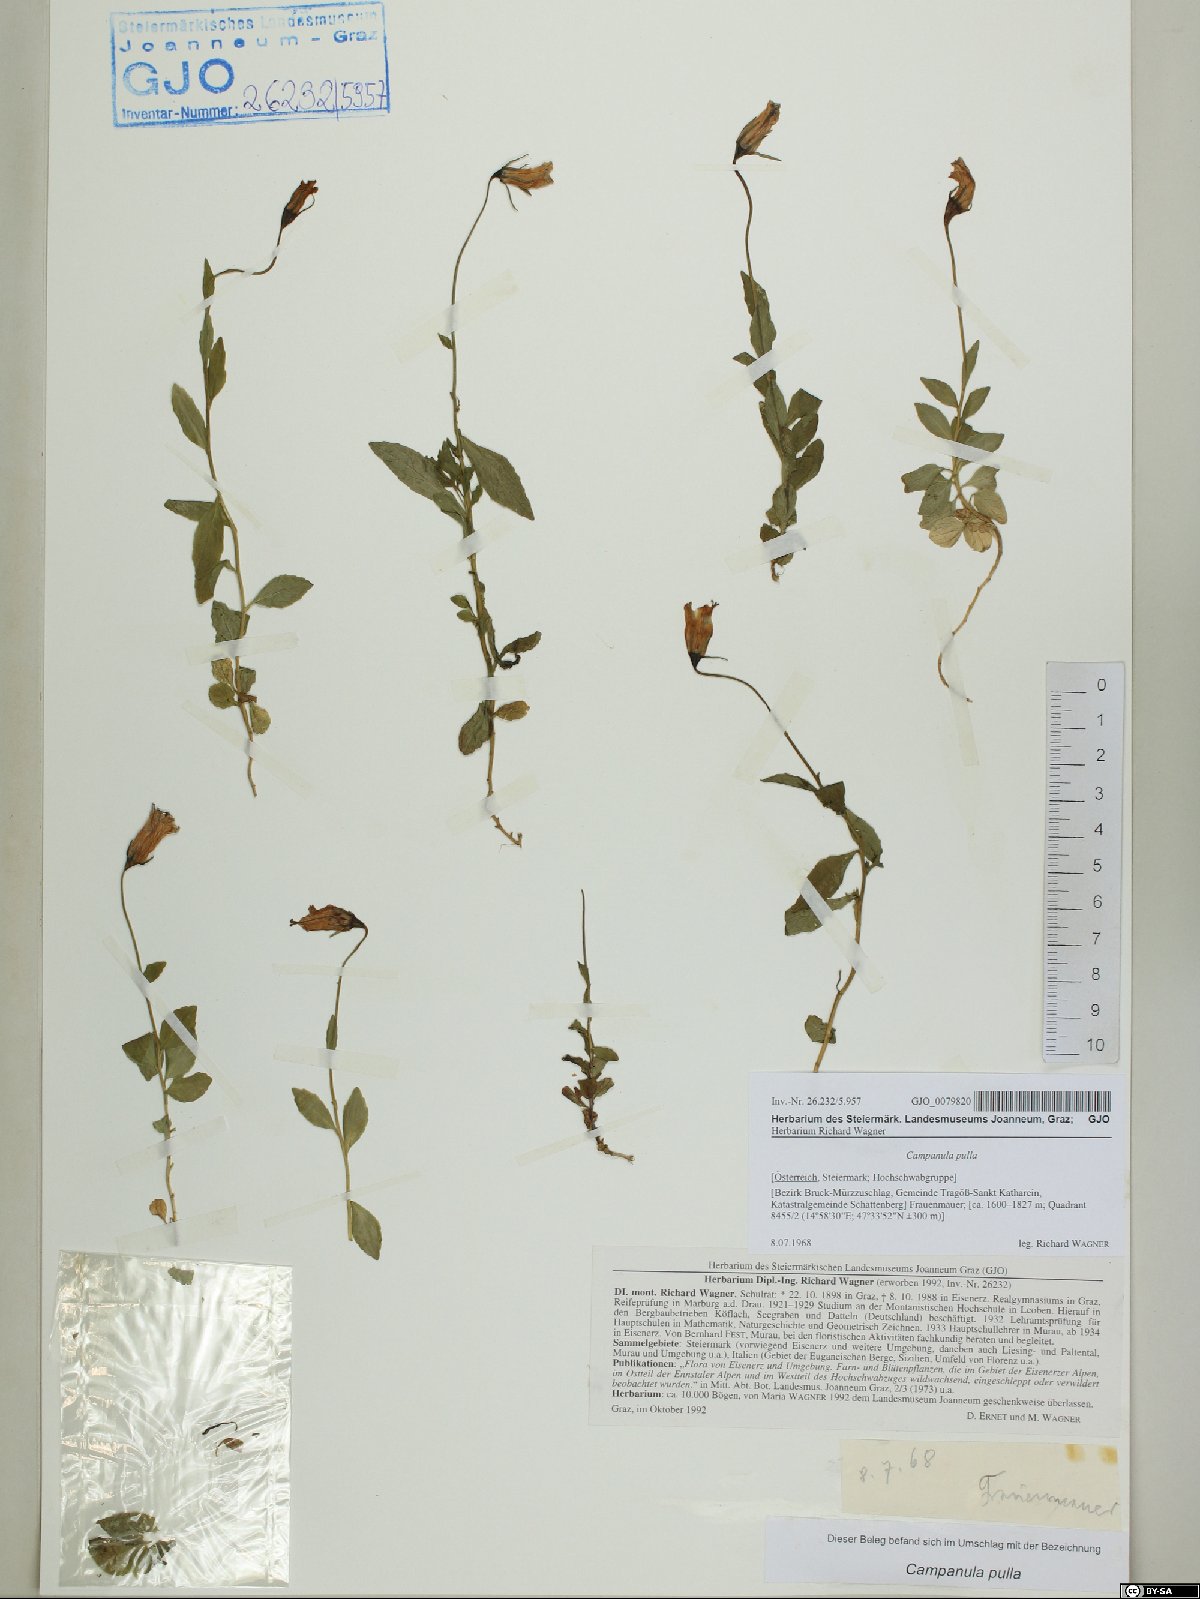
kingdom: Plantae
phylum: Tracheophyta
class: Magnoliopsida
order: Asterales
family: Campanulaceae
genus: Campanula
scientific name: Campanula pulla
